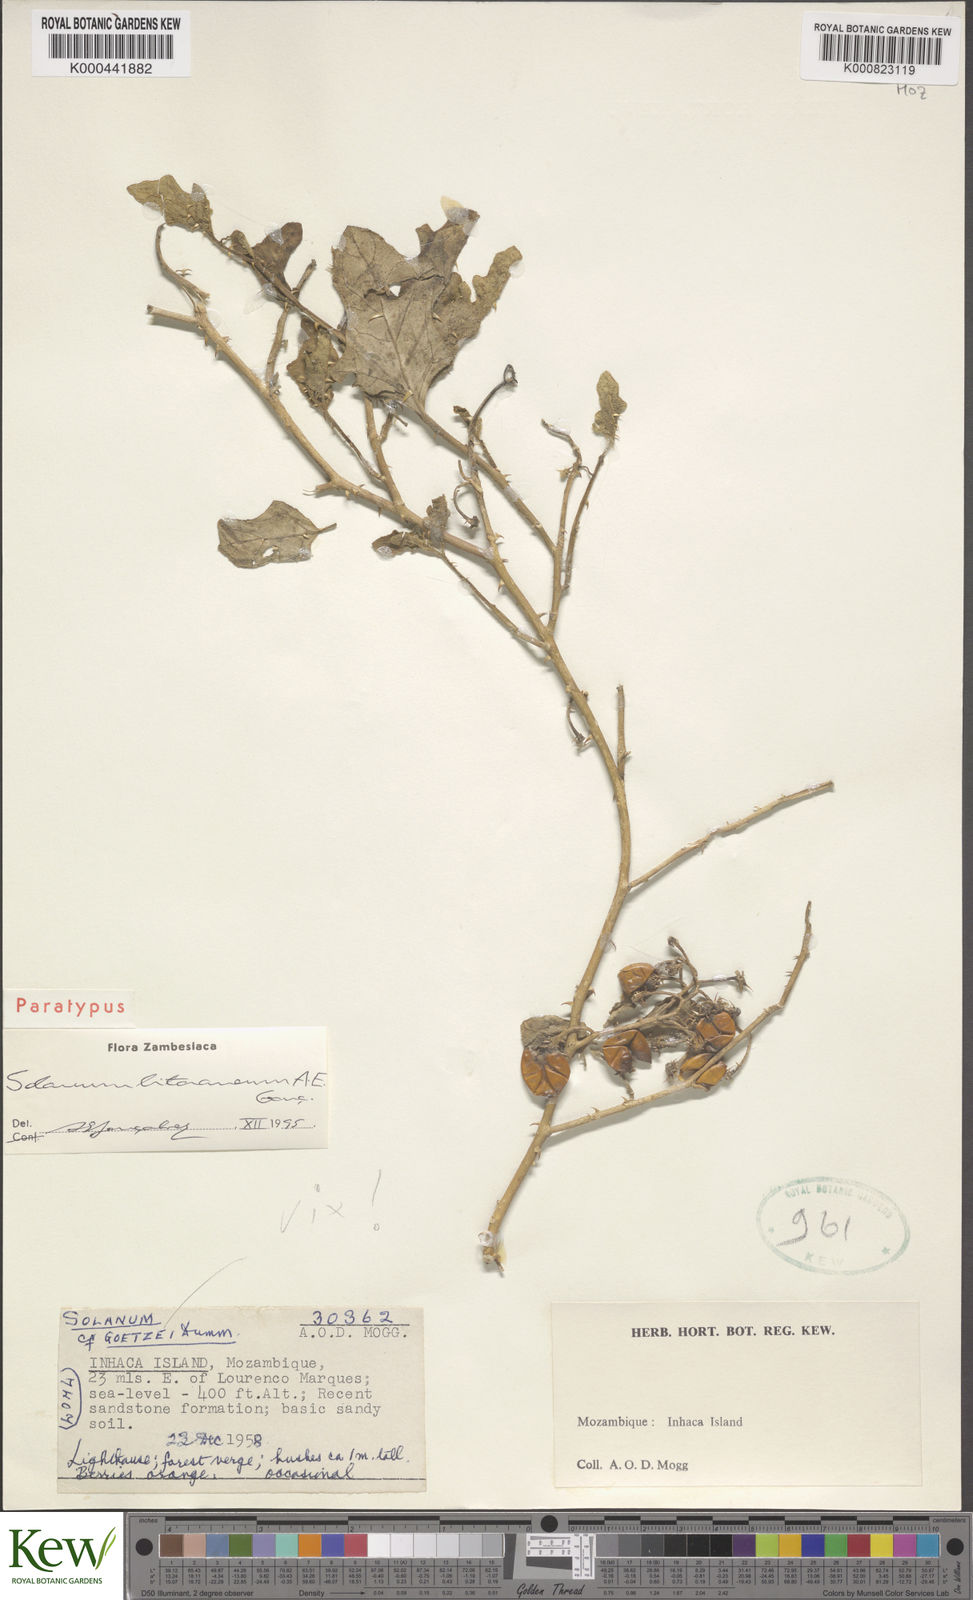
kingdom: Plantae
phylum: Tracheophyta
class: Magnoliopsida
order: Solanales
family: Solanaceae
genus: Solanum
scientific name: Solanum
